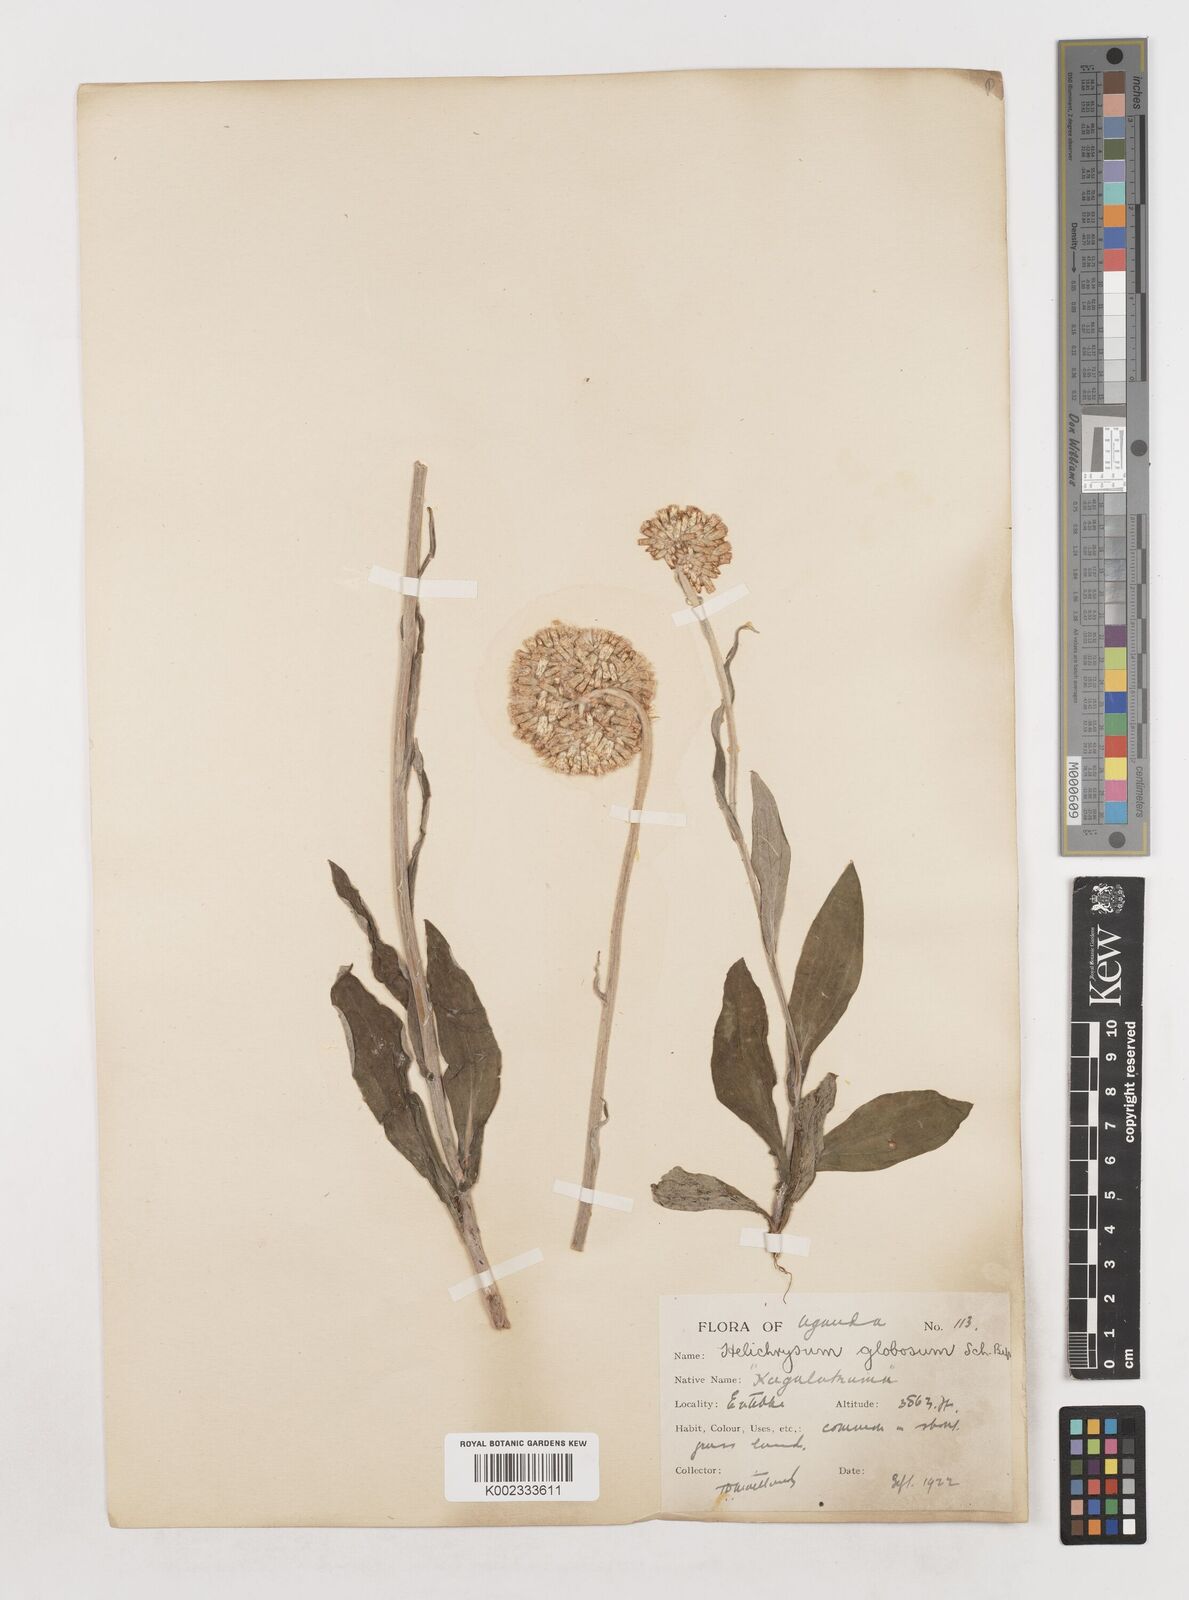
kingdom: Plantae
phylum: Tracheophyta
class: Magnoliopsida
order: Asterales
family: Asteraceae
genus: Helichrysum
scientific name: Helichrysum globosum
